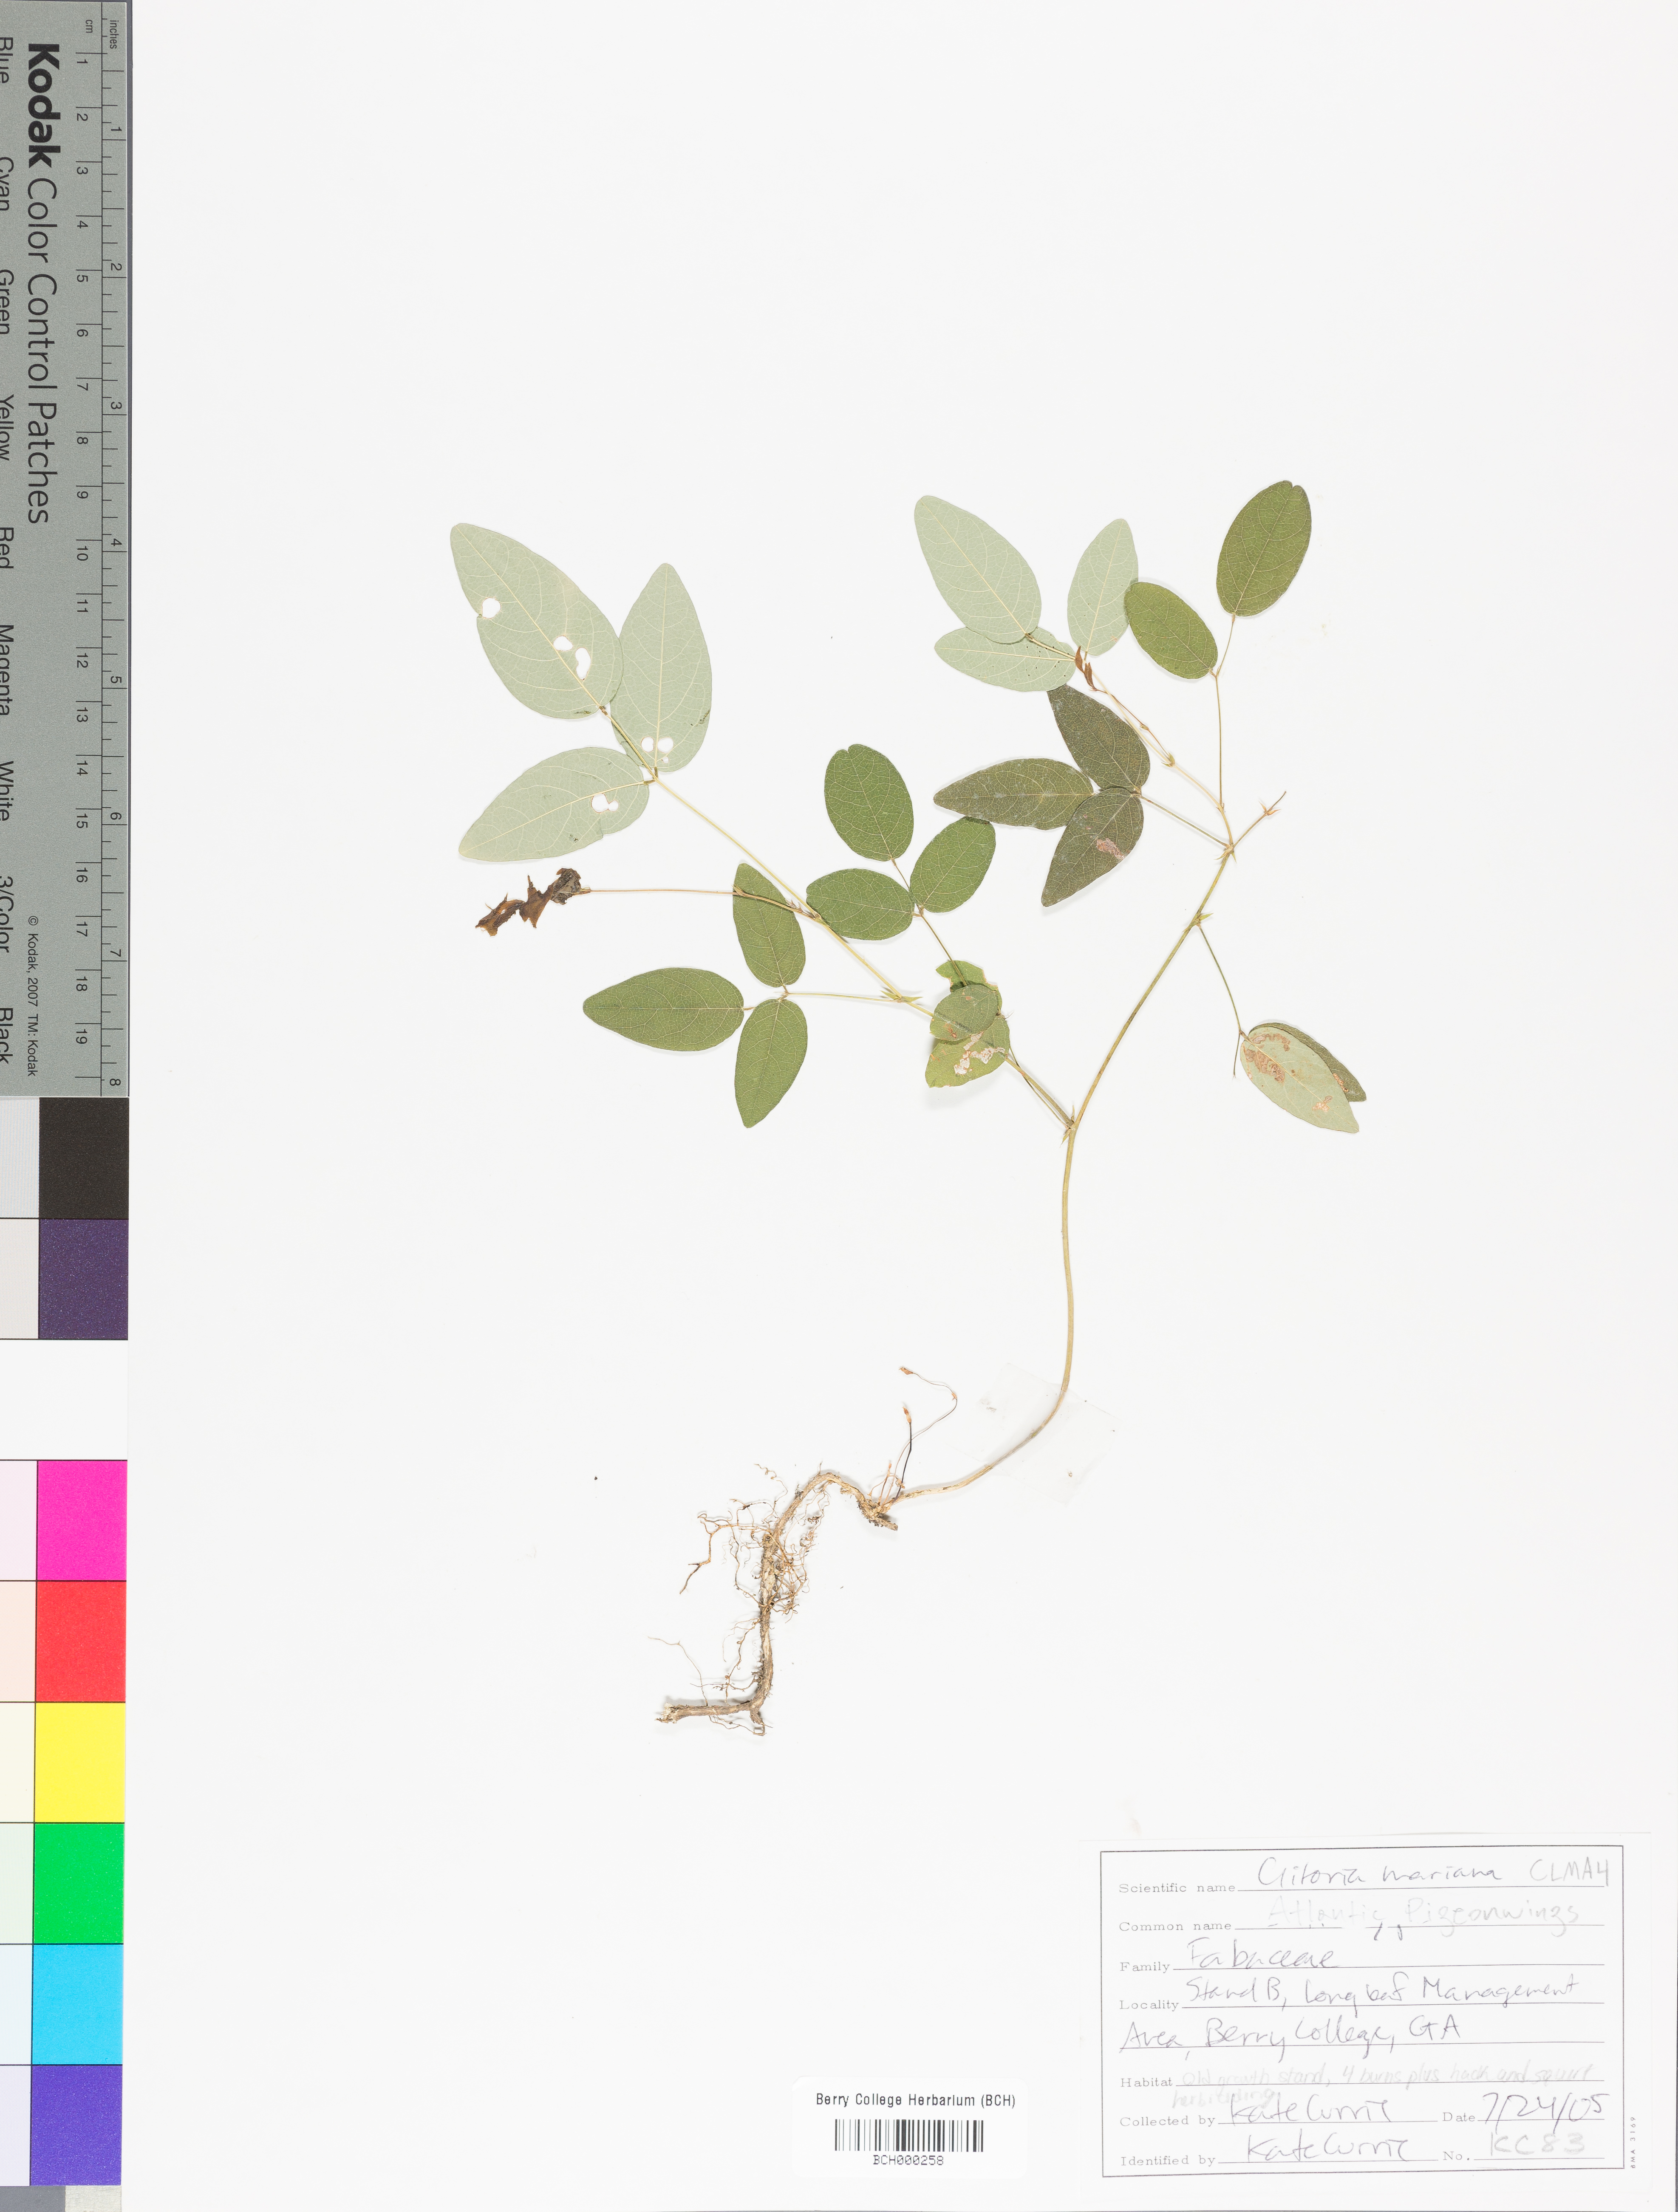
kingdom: Plantae
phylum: Tracheophyta
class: Magnoliopsida
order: Fabales
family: Fabaceae
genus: Clitoria
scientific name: Clitoria mariana
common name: Butterfly-pea
